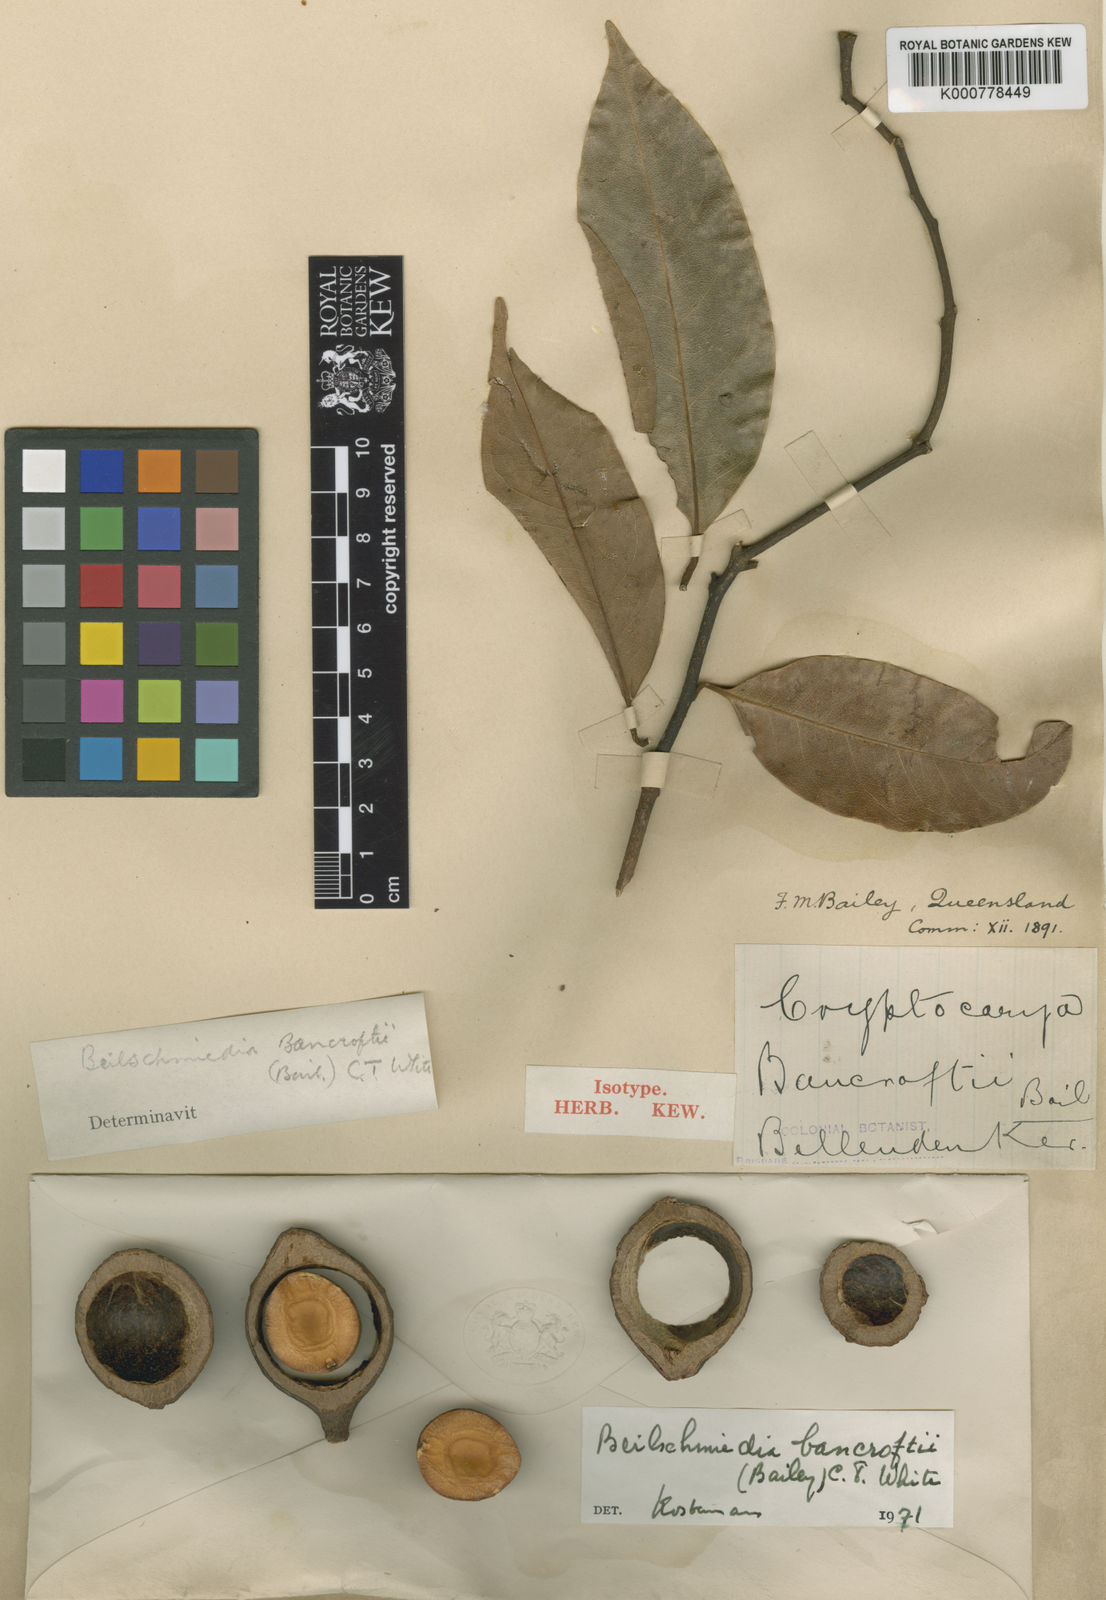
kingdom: Plantae
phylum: Tracheophyta
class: Magnoliopsida
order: Laurales
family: Lauraceae
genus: Beilschmiedia
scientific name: Beilschmiedia bancroftii
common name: Canary-ash
